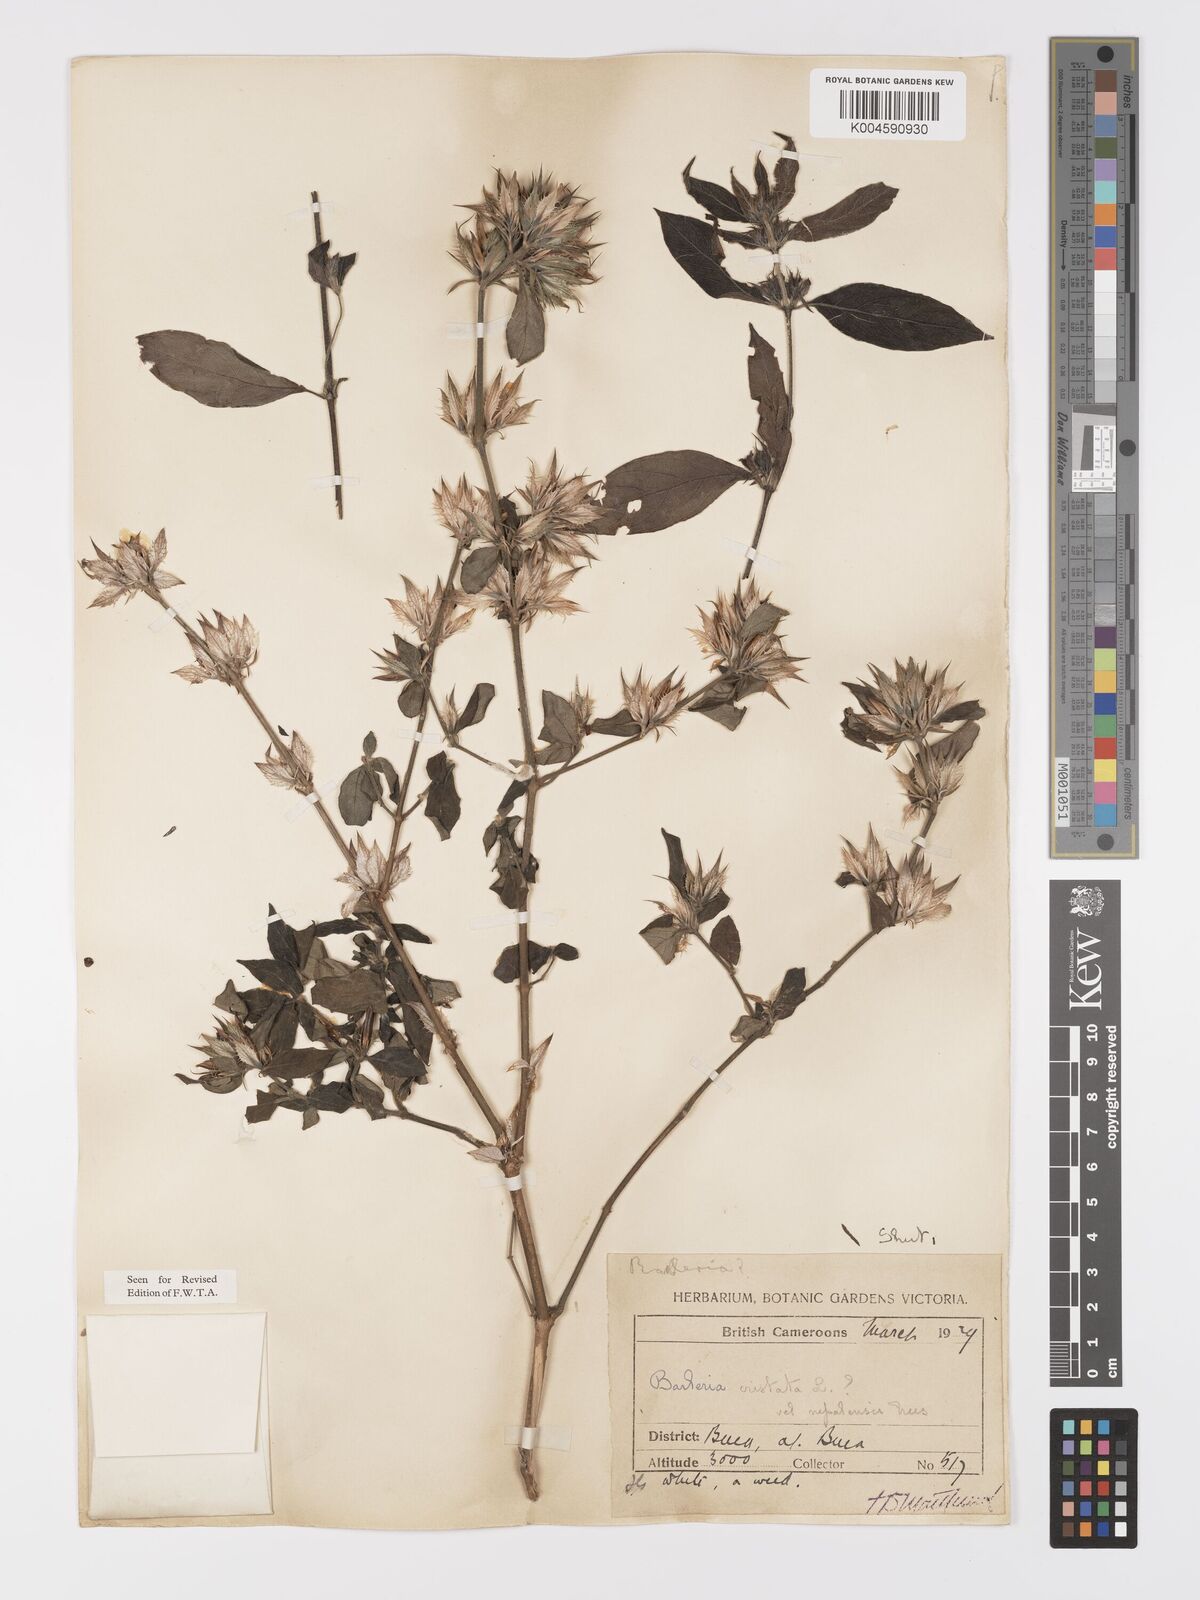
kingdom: Plantae
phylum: Tracheophyta
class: Magnoliopsida
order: Lamiales
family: Acanthaceae
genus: Barleria
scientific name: Barleria cristata
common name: Crested philippine violet
